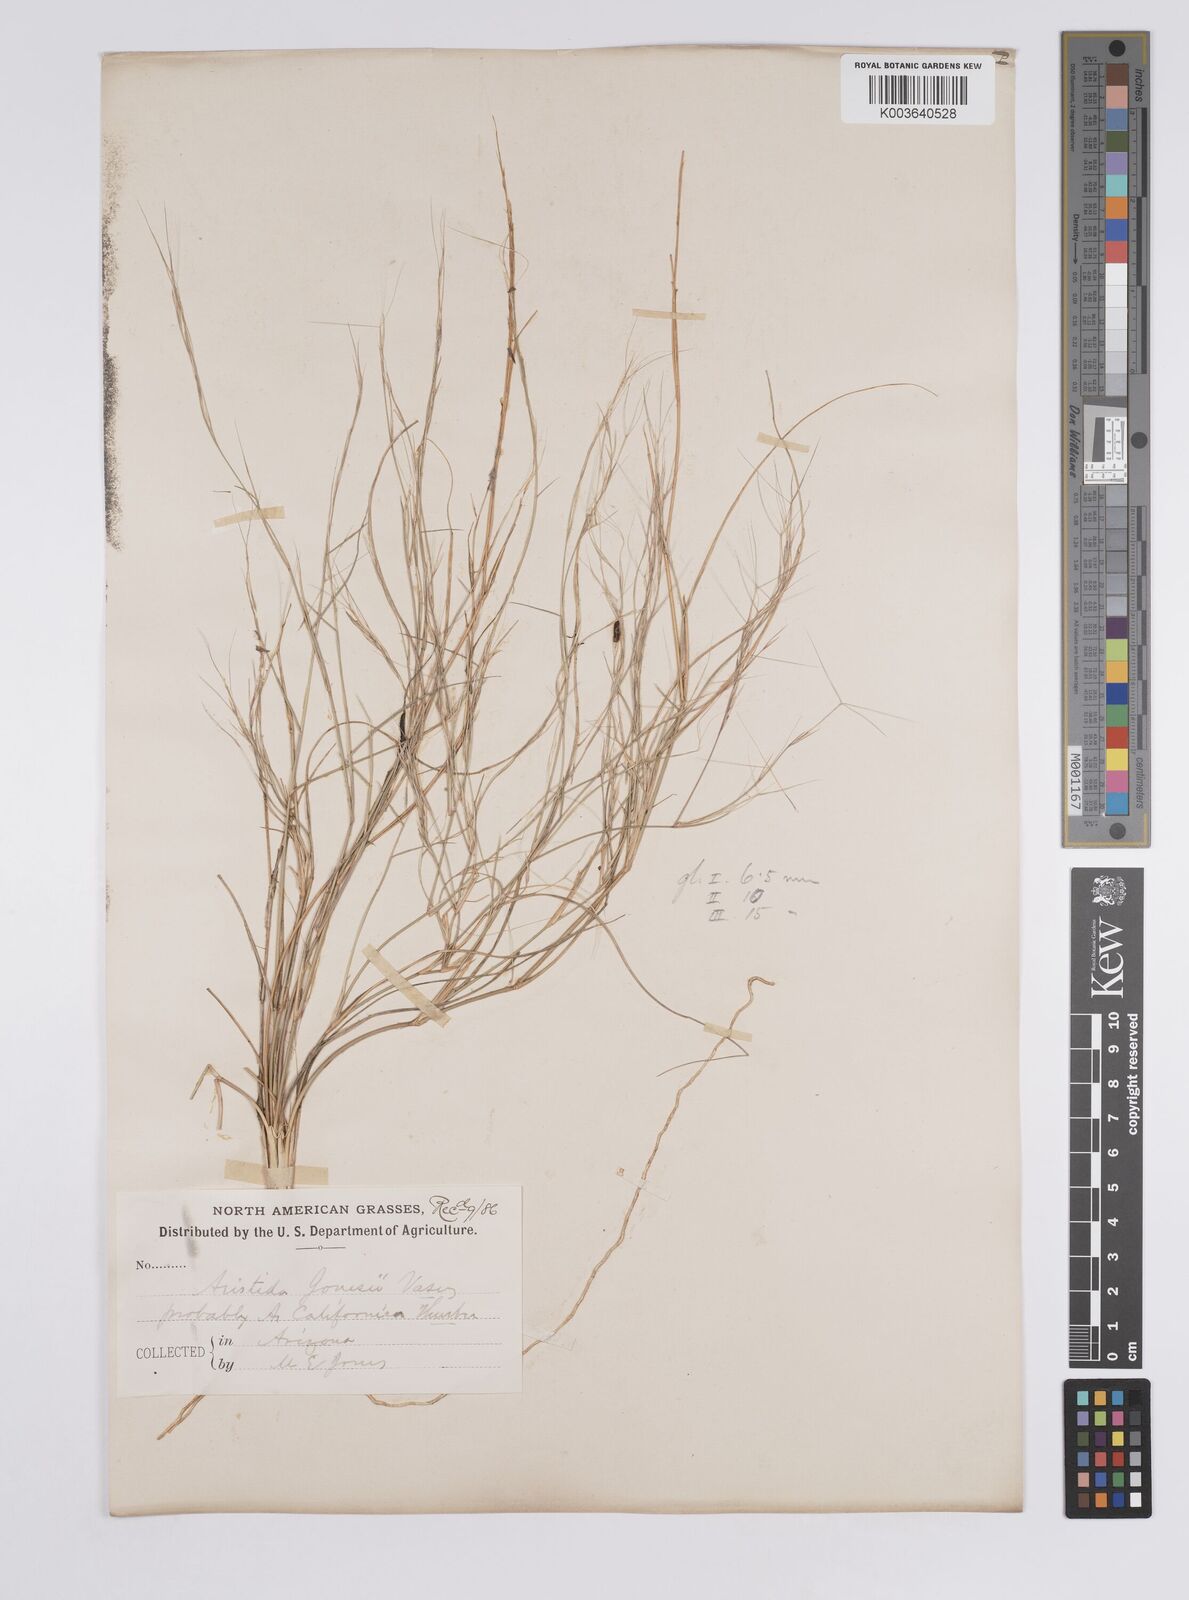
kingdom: Plantae
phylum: Tracheophyta
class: Liliopsida
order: Poales
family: Poaceae
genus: Aristida
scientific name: Aristida californica
